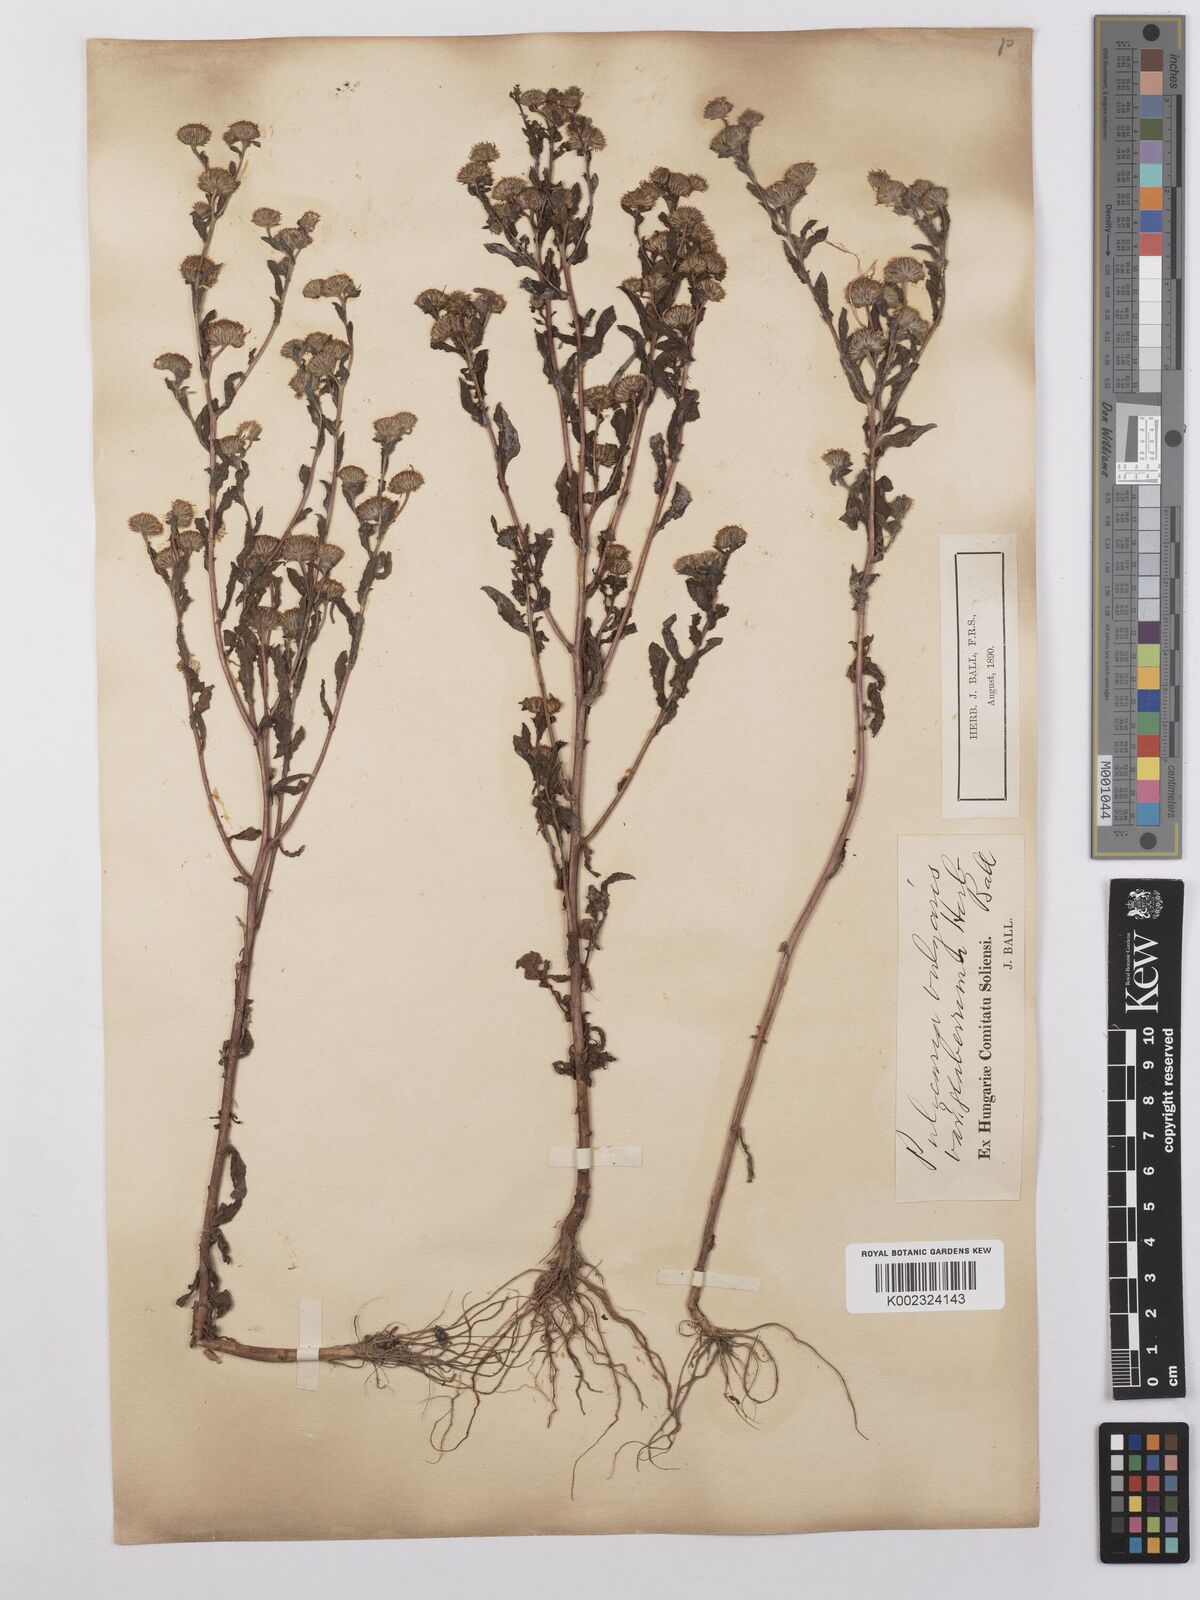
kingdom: Plantae
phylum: Tracheophyta
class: Magnoliopsida
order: Asterales
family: Asteraceae
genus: Pulicaria
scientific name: Pulicaria vulgaris
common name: Small fleabane
